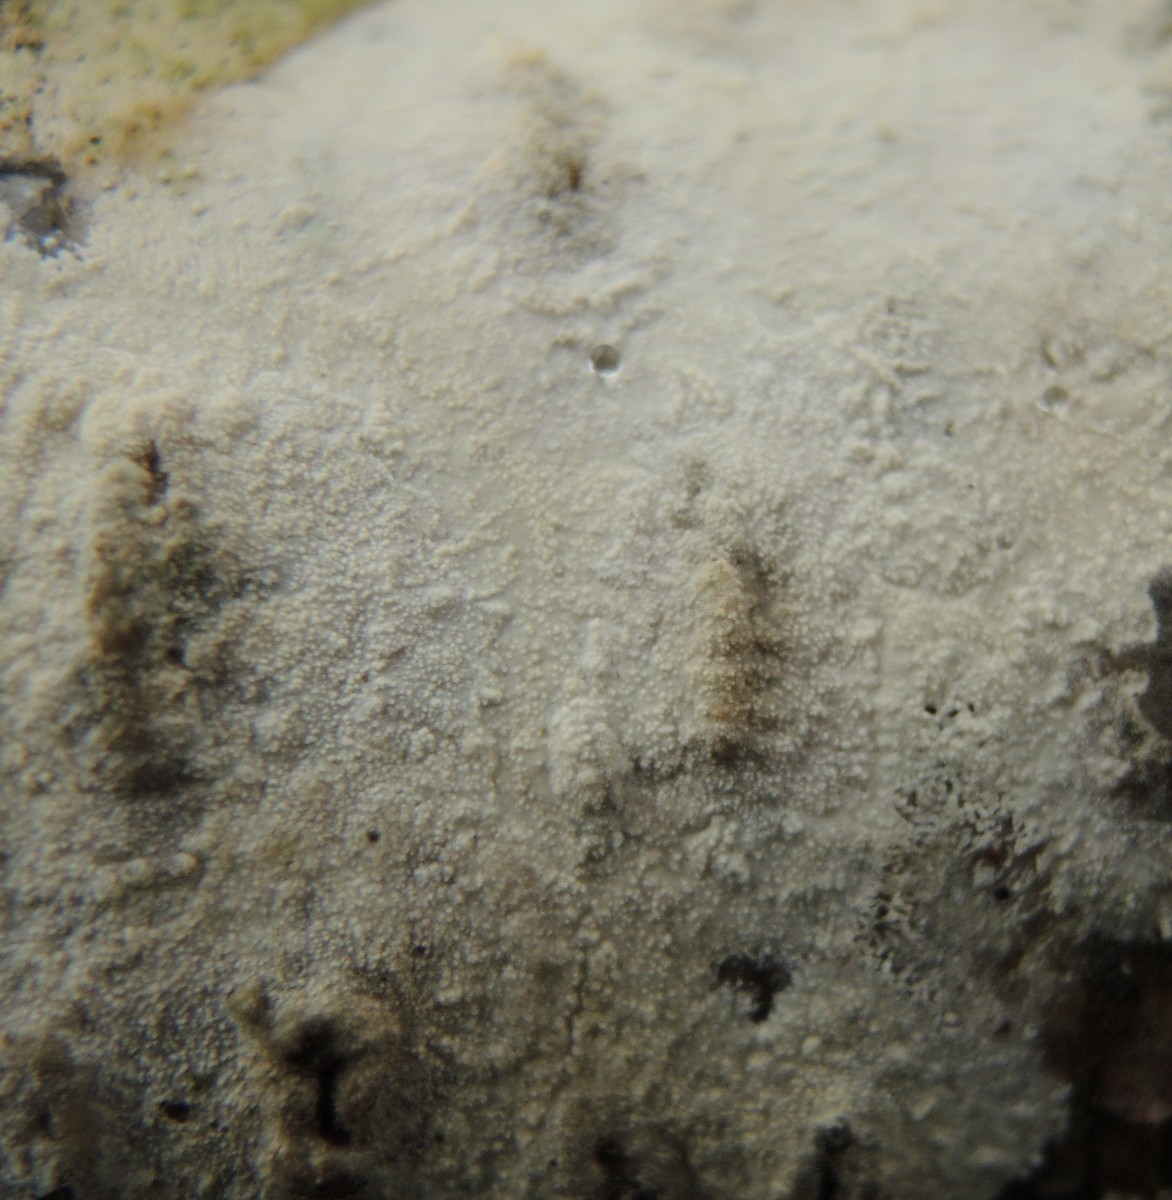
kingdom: Fungi
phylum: Basidiomycota
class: Agaricomycetes
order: Polyporales
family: Hyphodermataceae
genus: Hyphoderma
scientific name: Hyphoderma setigerum
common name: håret kalkskind
